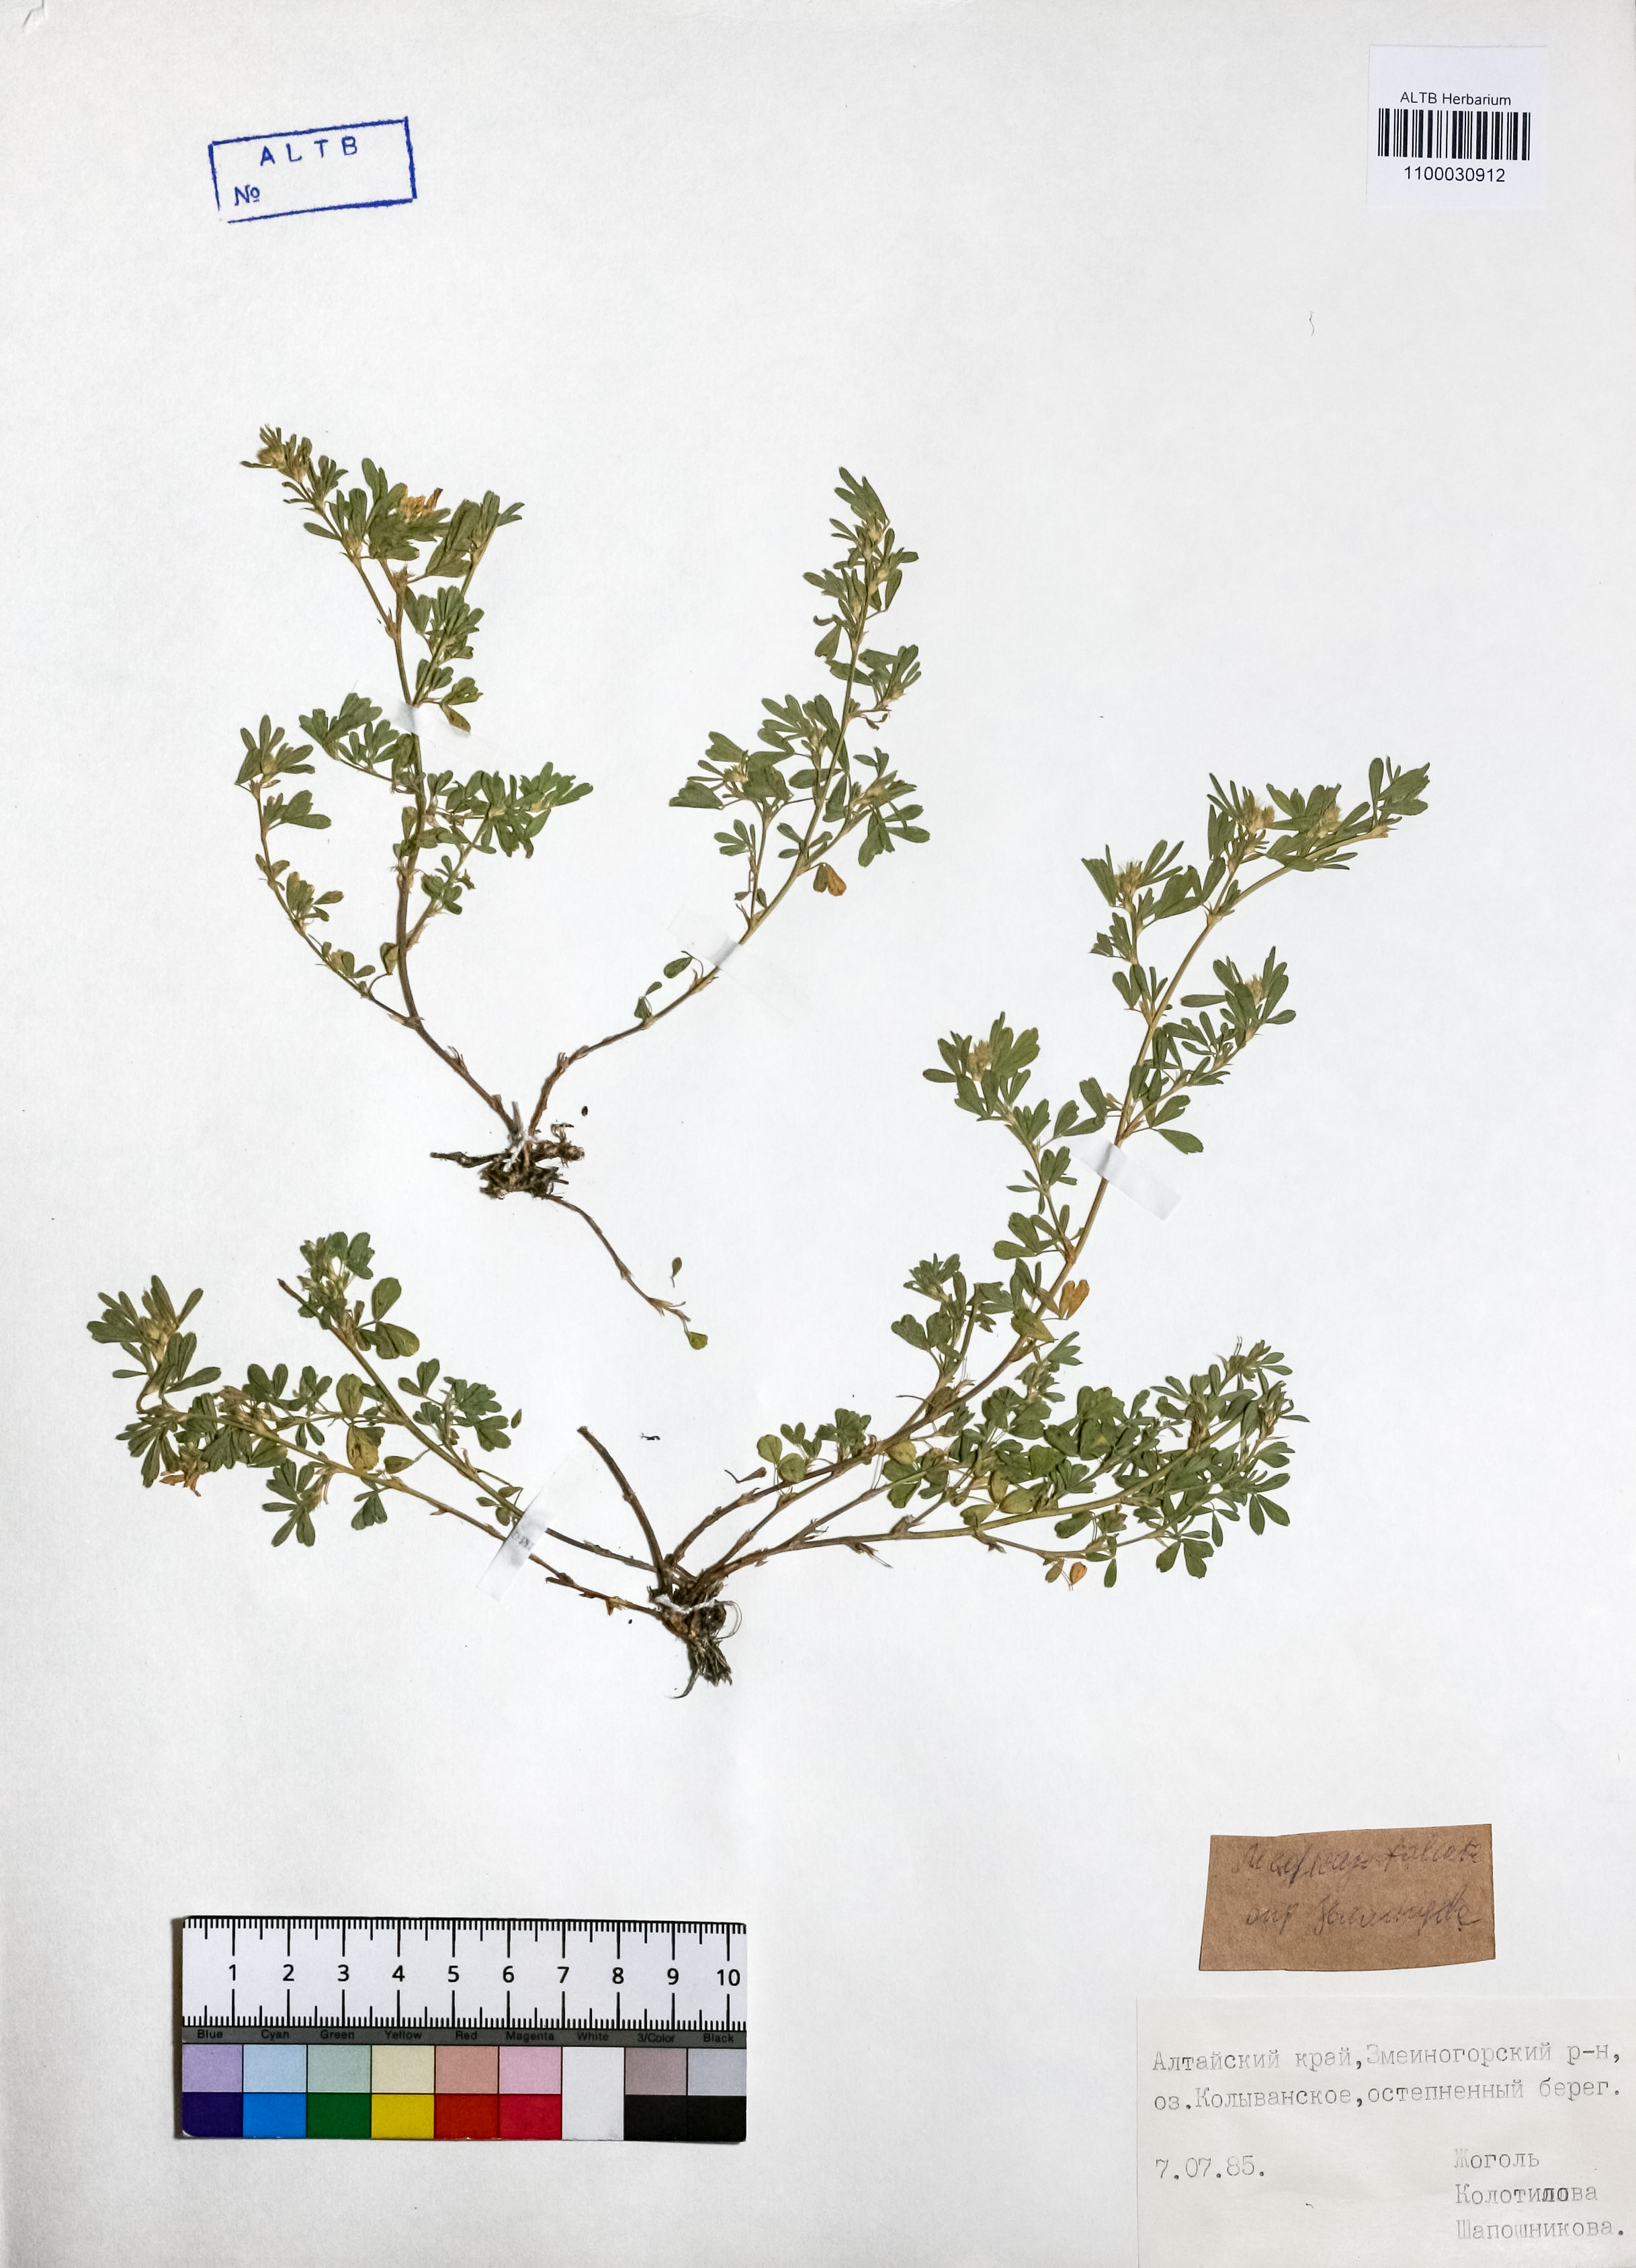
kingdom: Plantae
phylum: Tracheophyta
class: Magnoliopsida
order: Fabales
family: Fabaceae
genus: Medicago
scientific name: Medicago falcata
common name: Sickle medick
